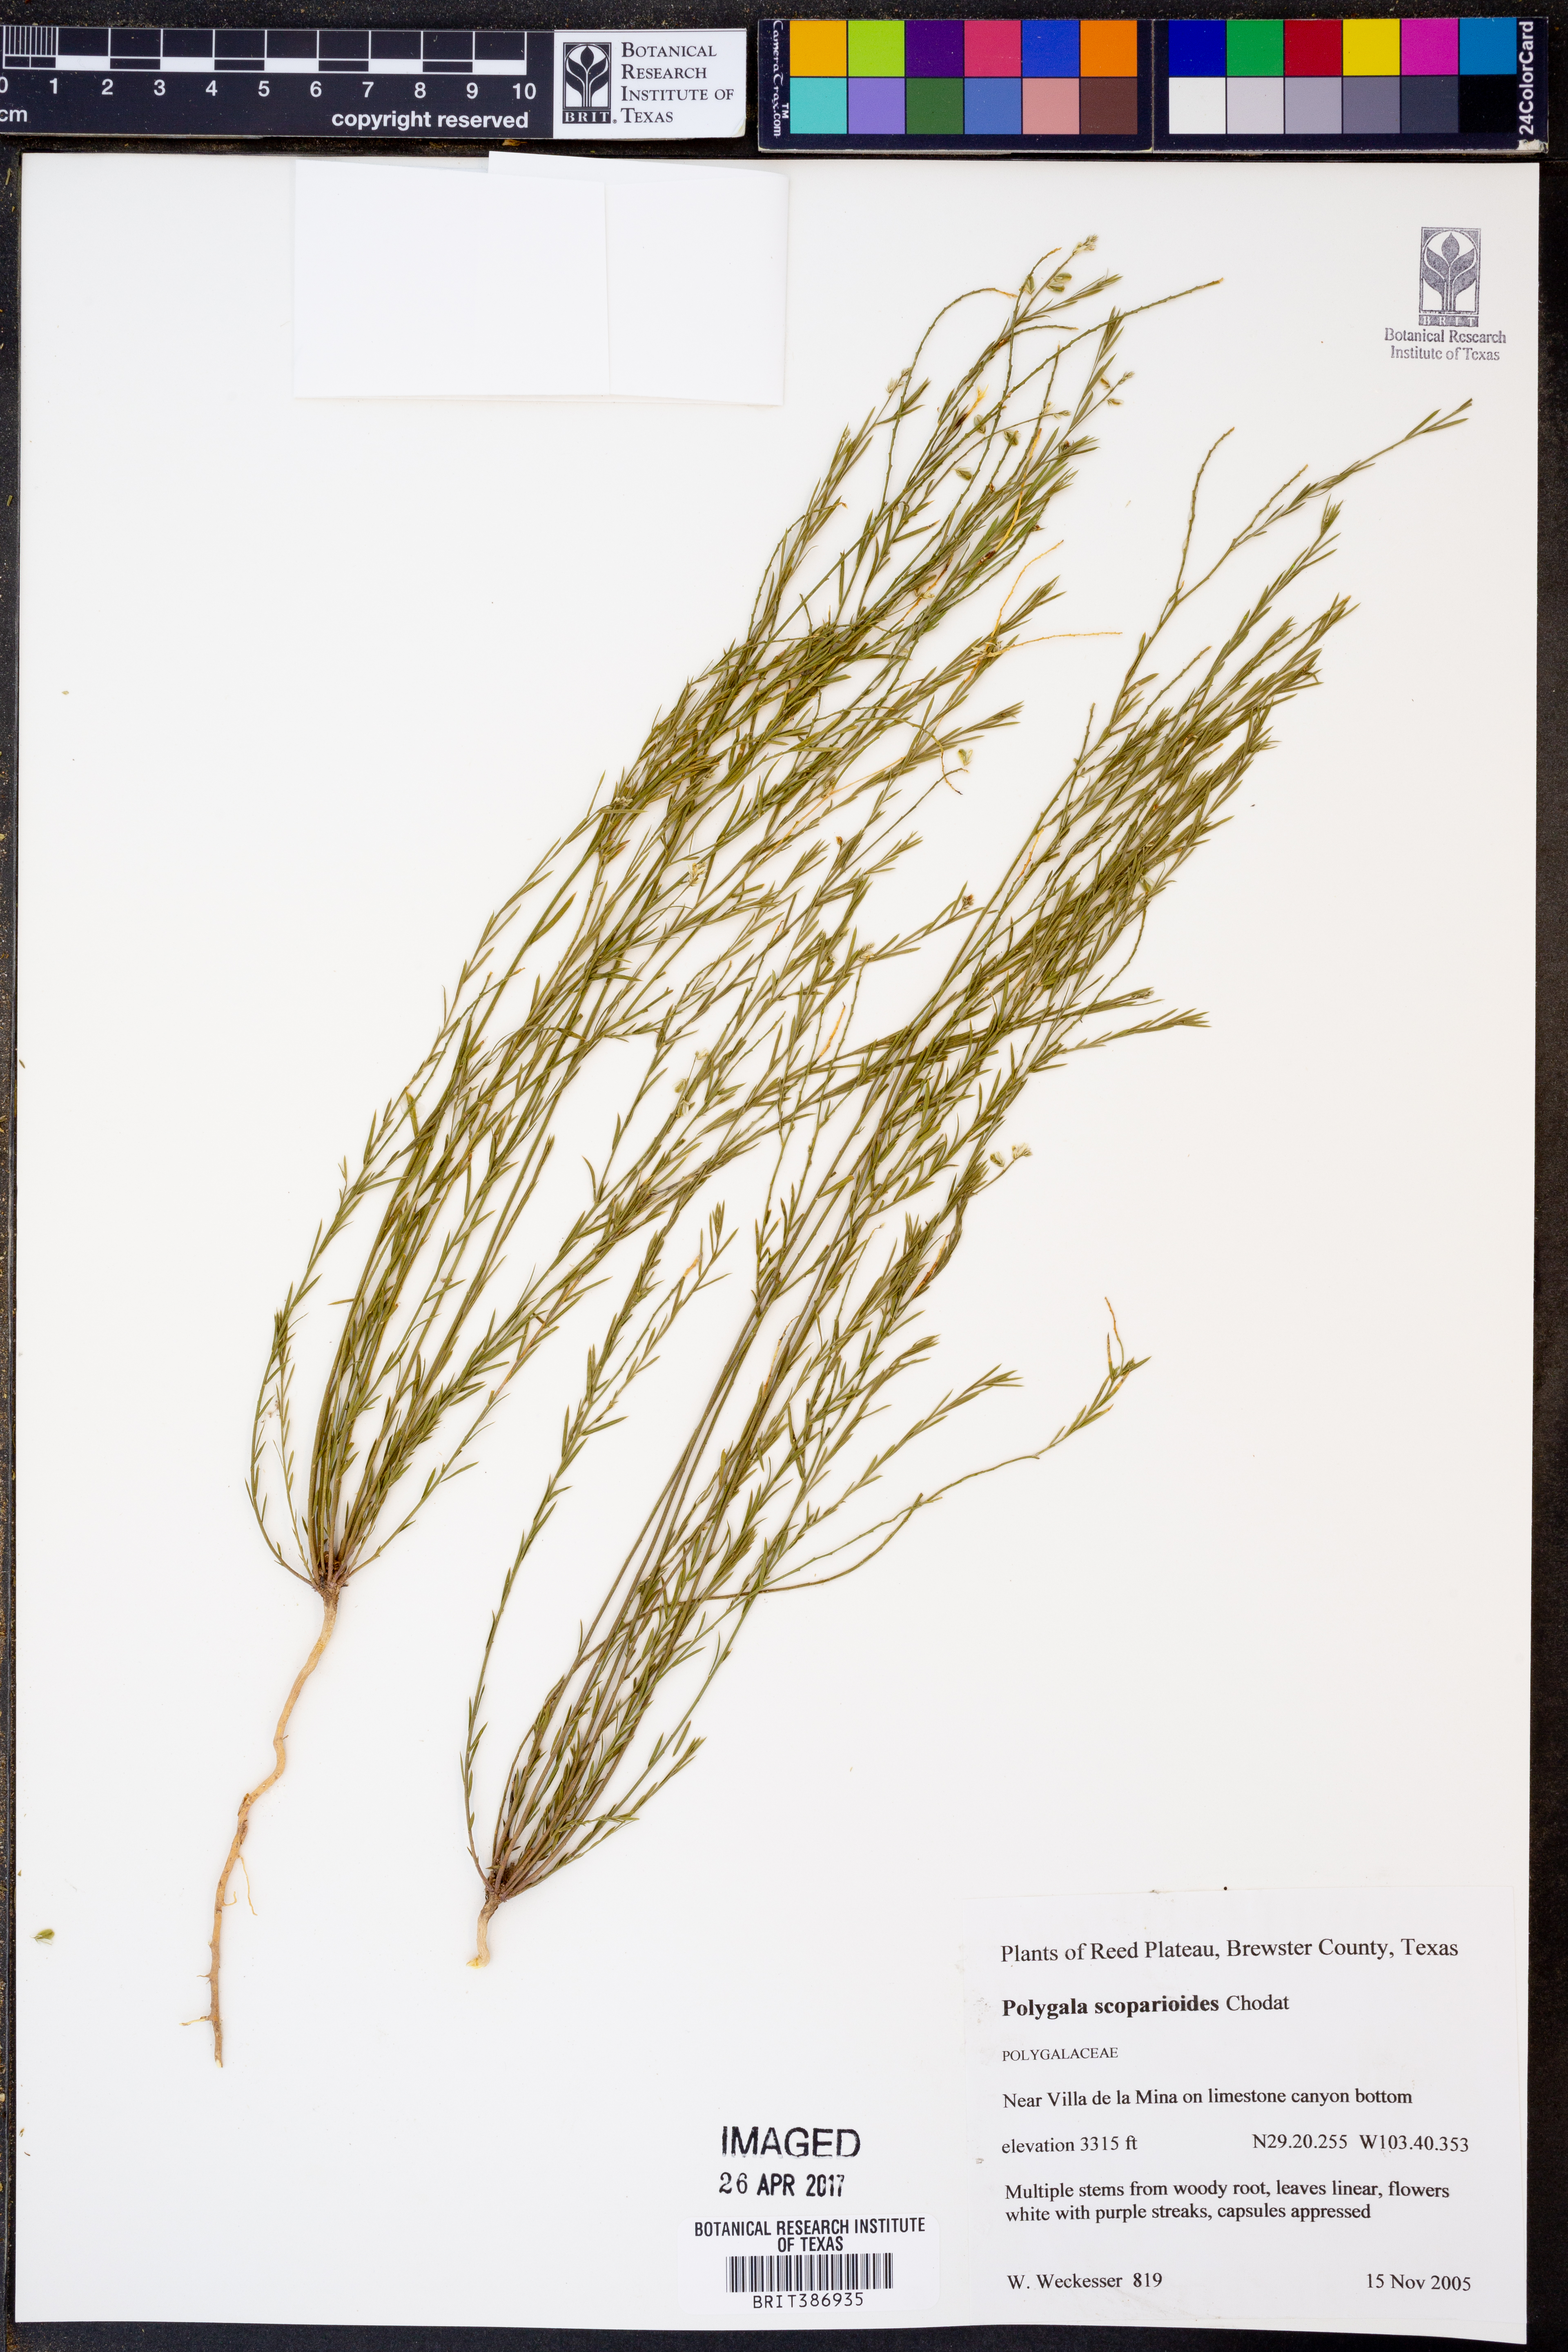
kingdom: Plantae
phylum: Tracheophyta
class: Magnoliopsida
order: Fabales
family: Polygalaceae
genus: Polygala
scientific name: Polygala scoparioides
